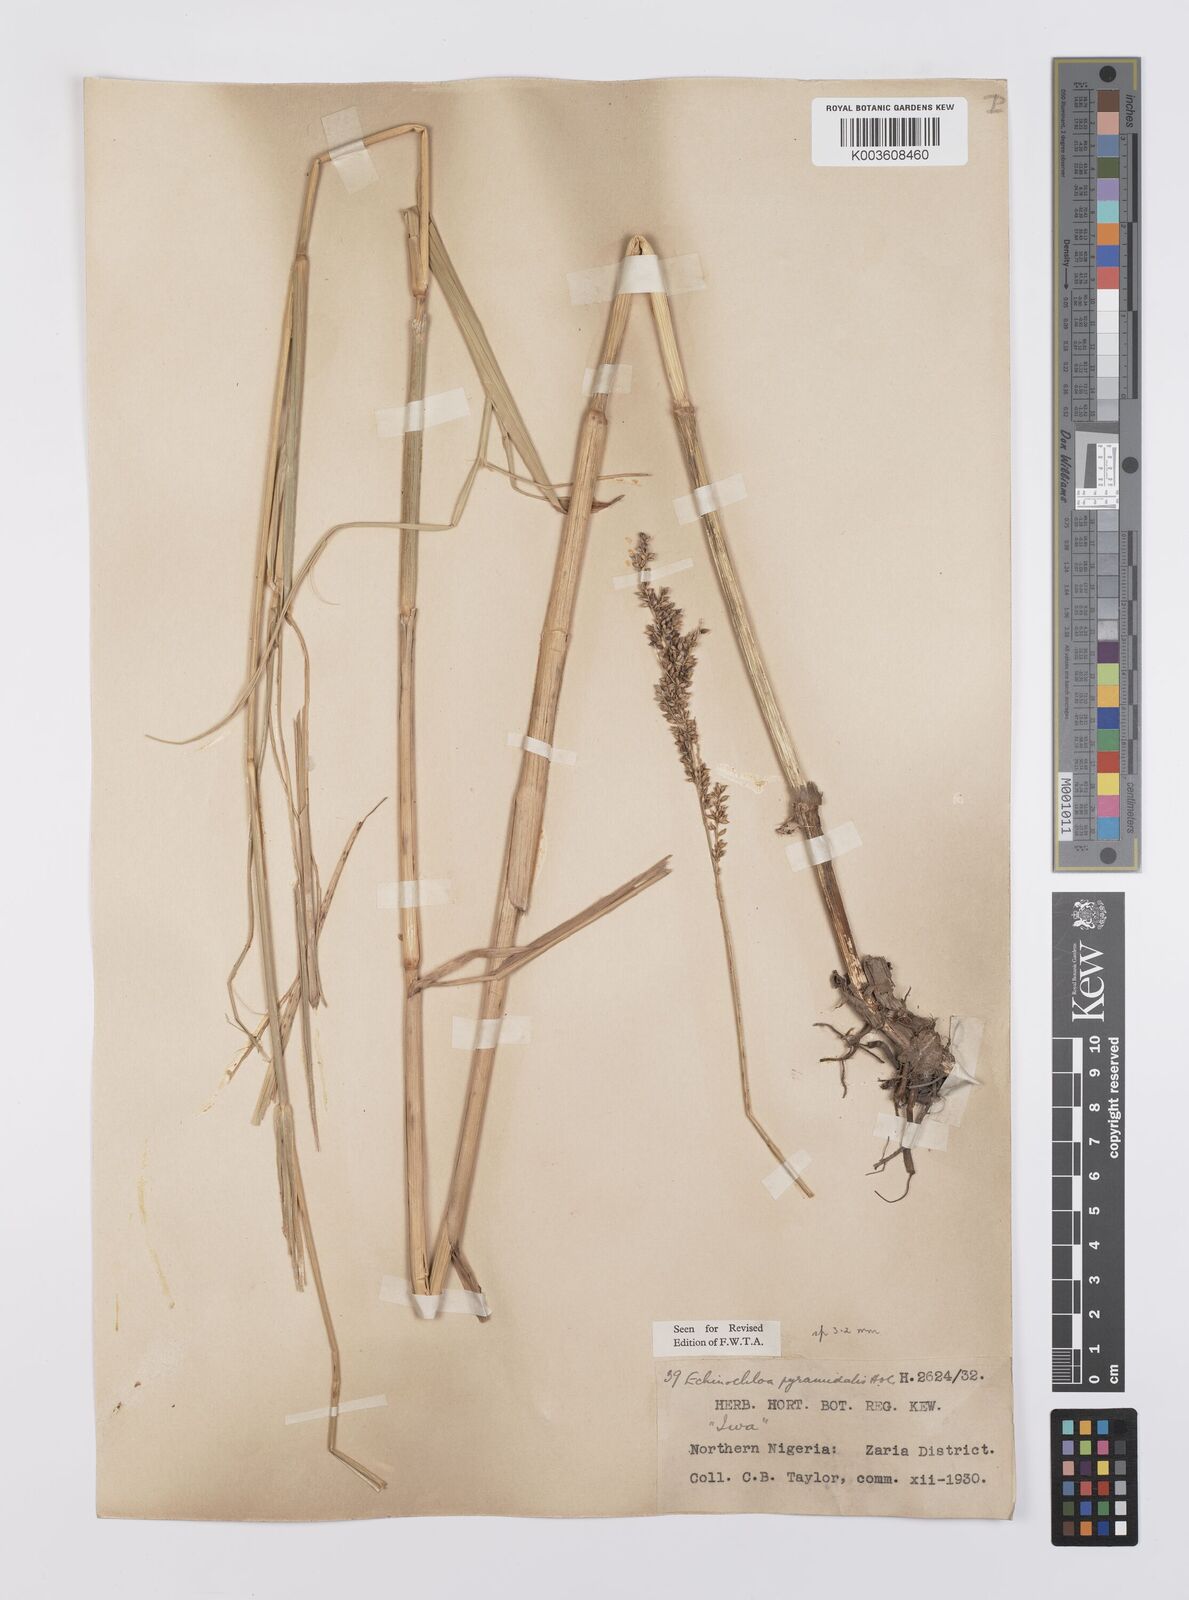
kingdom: Plantae
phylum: Tracheophyta
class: Liliopsida
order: Poales
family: Poaceae
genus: Echinochloa
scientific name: Echinochloa pyramidalis
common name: Antelope grass
